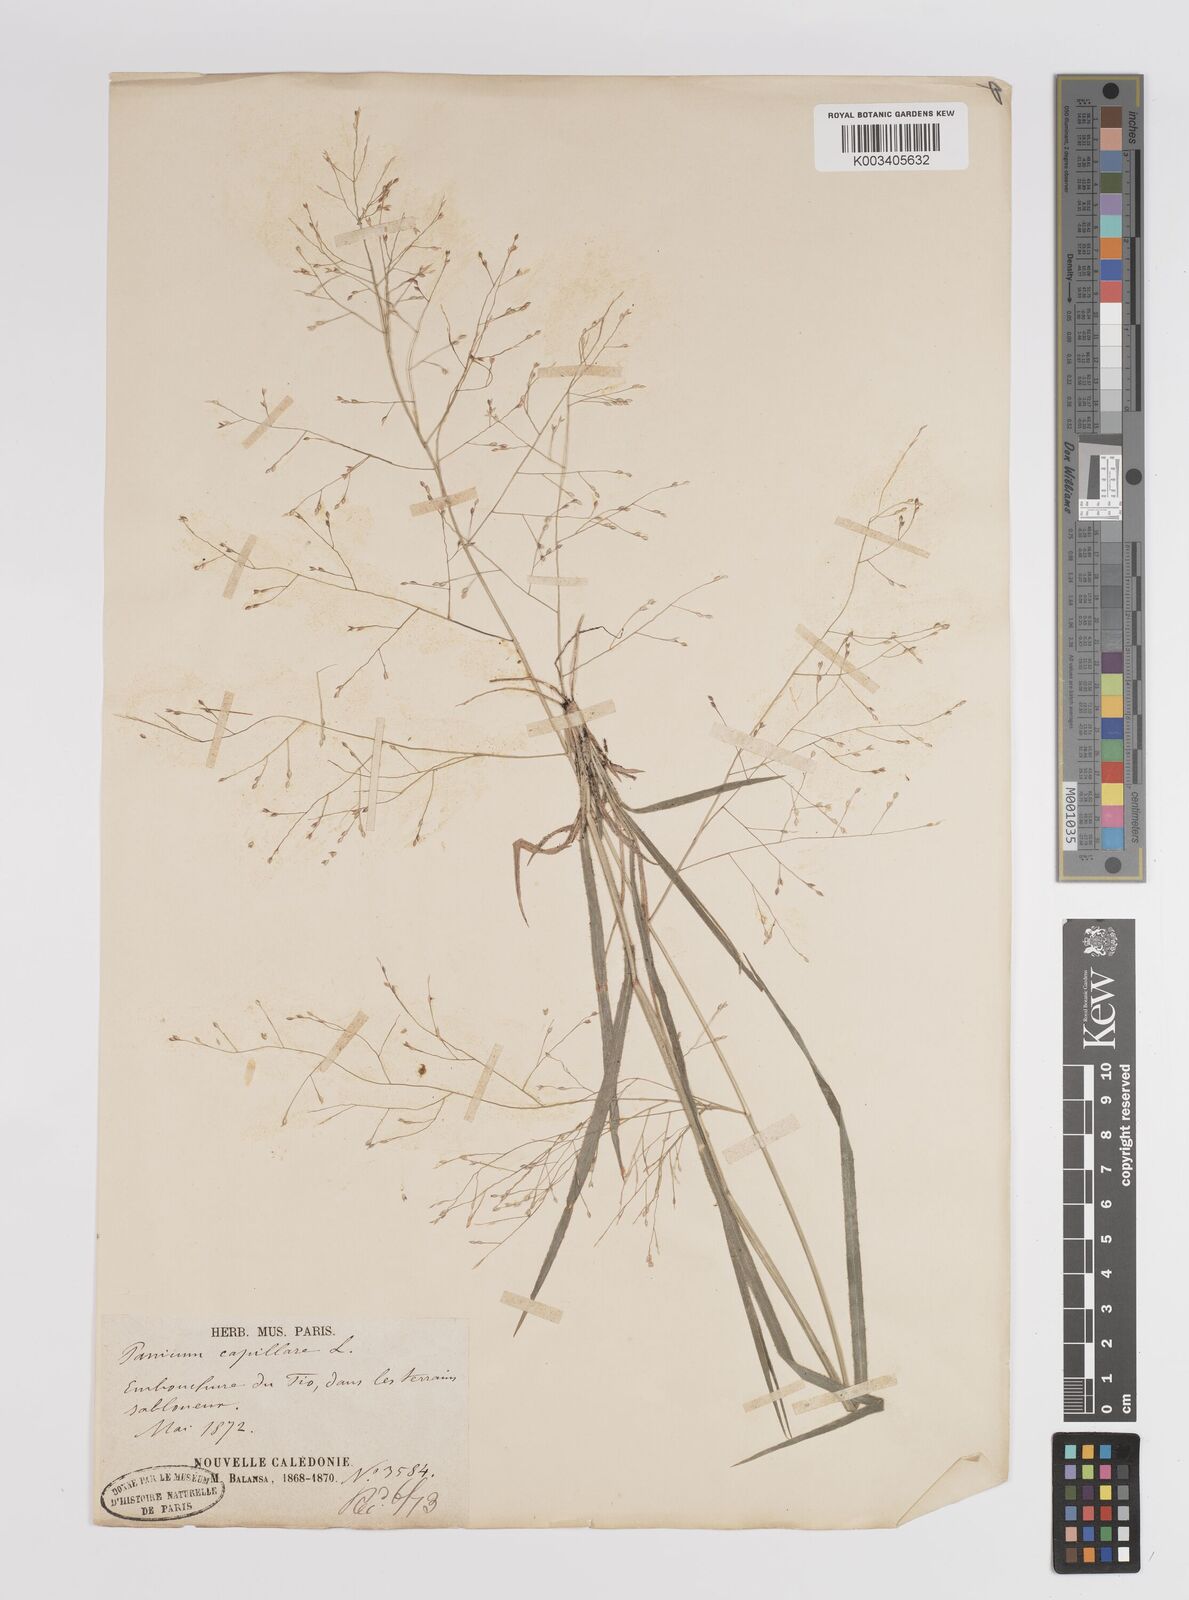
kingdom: Plantae
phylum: Tracheophyta
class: Liliopsida
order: Poales
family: Poaceae
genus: Panicum
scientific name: Panicum capillare
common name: Witch-grass
